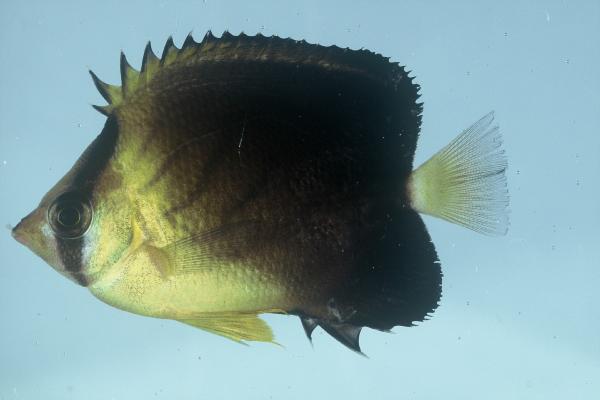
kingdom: Animalia
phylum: Chordata
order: Perciformes
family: Chaetodontidae
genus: Chaetodon
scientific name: Chaetodon blackburnii
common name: Blackburn's butterflyfish
